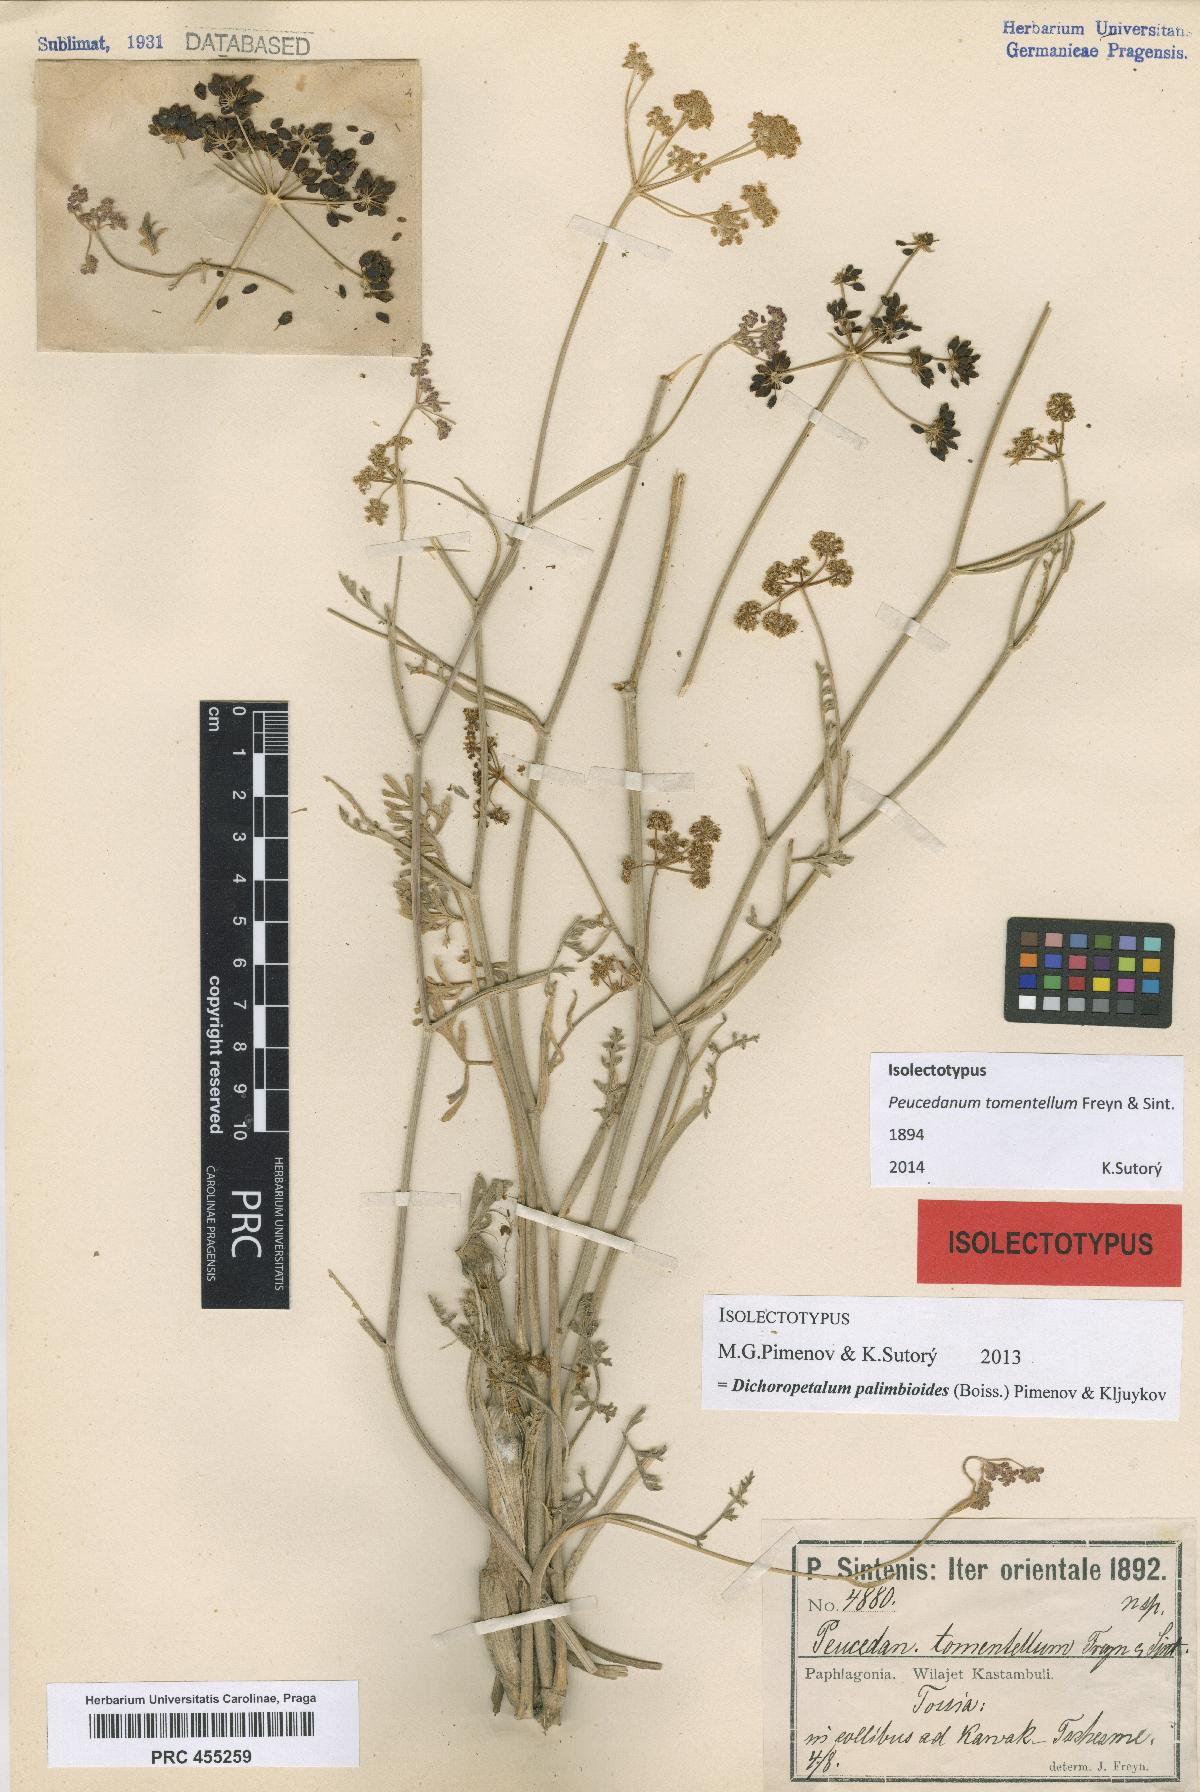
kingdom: Plantae
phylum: Tracheophyta
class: Magnoliopsida
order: Apiales
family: Apiaceae
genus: Dichoropetalum
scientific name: Dichoropetalum palimbioides
